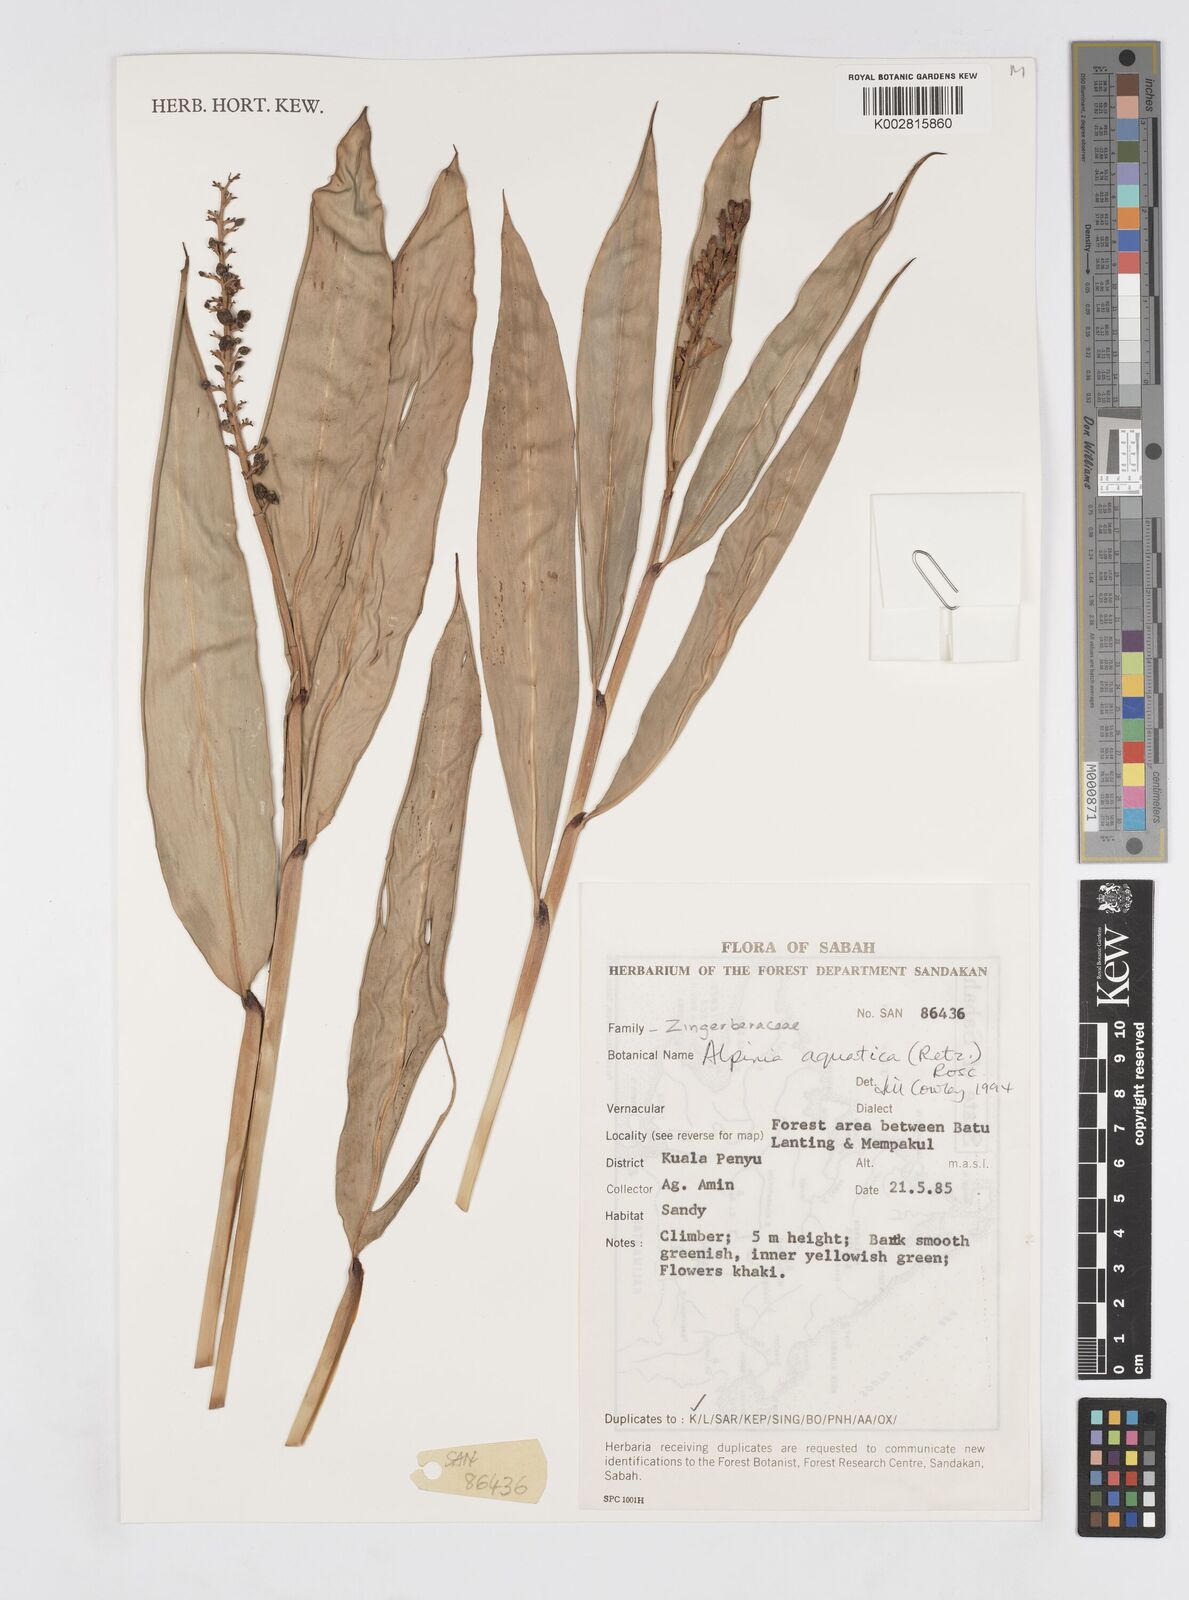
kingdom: Plantae
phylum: Tracheophyta
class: Liliopsida
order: Zingiberales
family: Zingiberaceae
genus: Alpinia
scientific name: Alpinia aquatica
